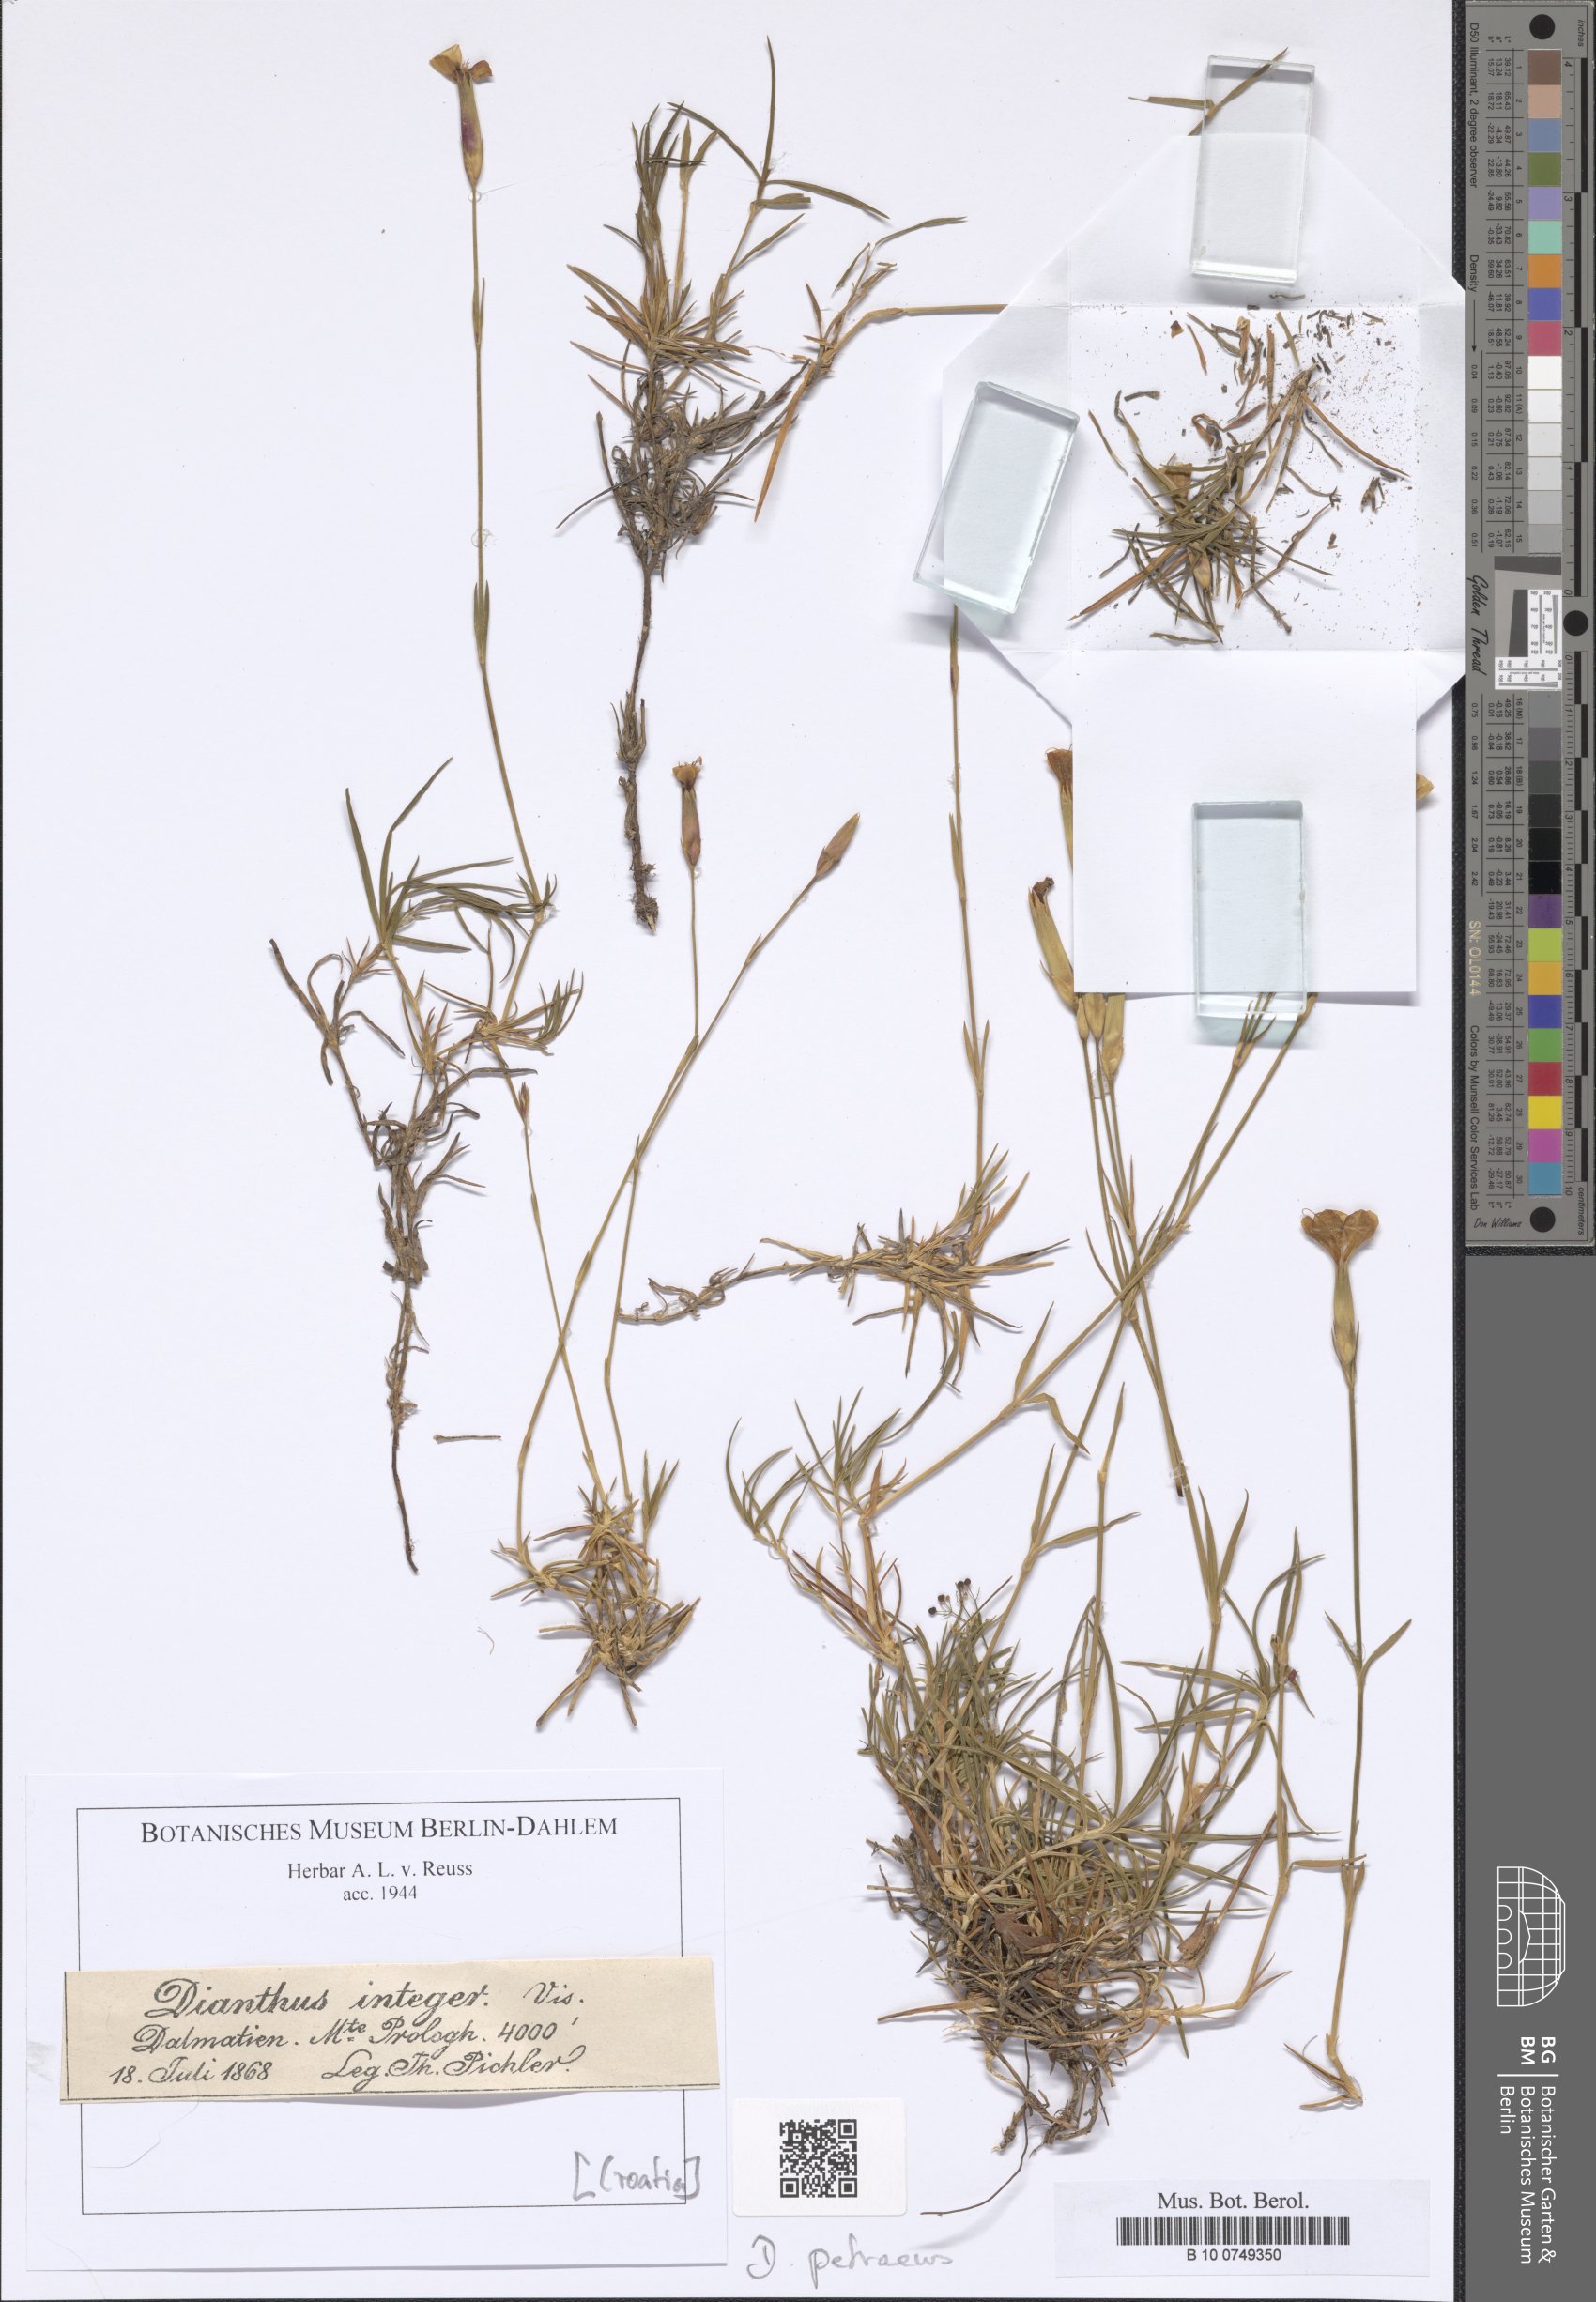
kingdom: Plantae
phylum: Tracheophyta
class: Magnoliopsida
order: Caryophyllales
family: Caryophyllaceae
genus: Dianthus
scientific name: Dianthus integer
